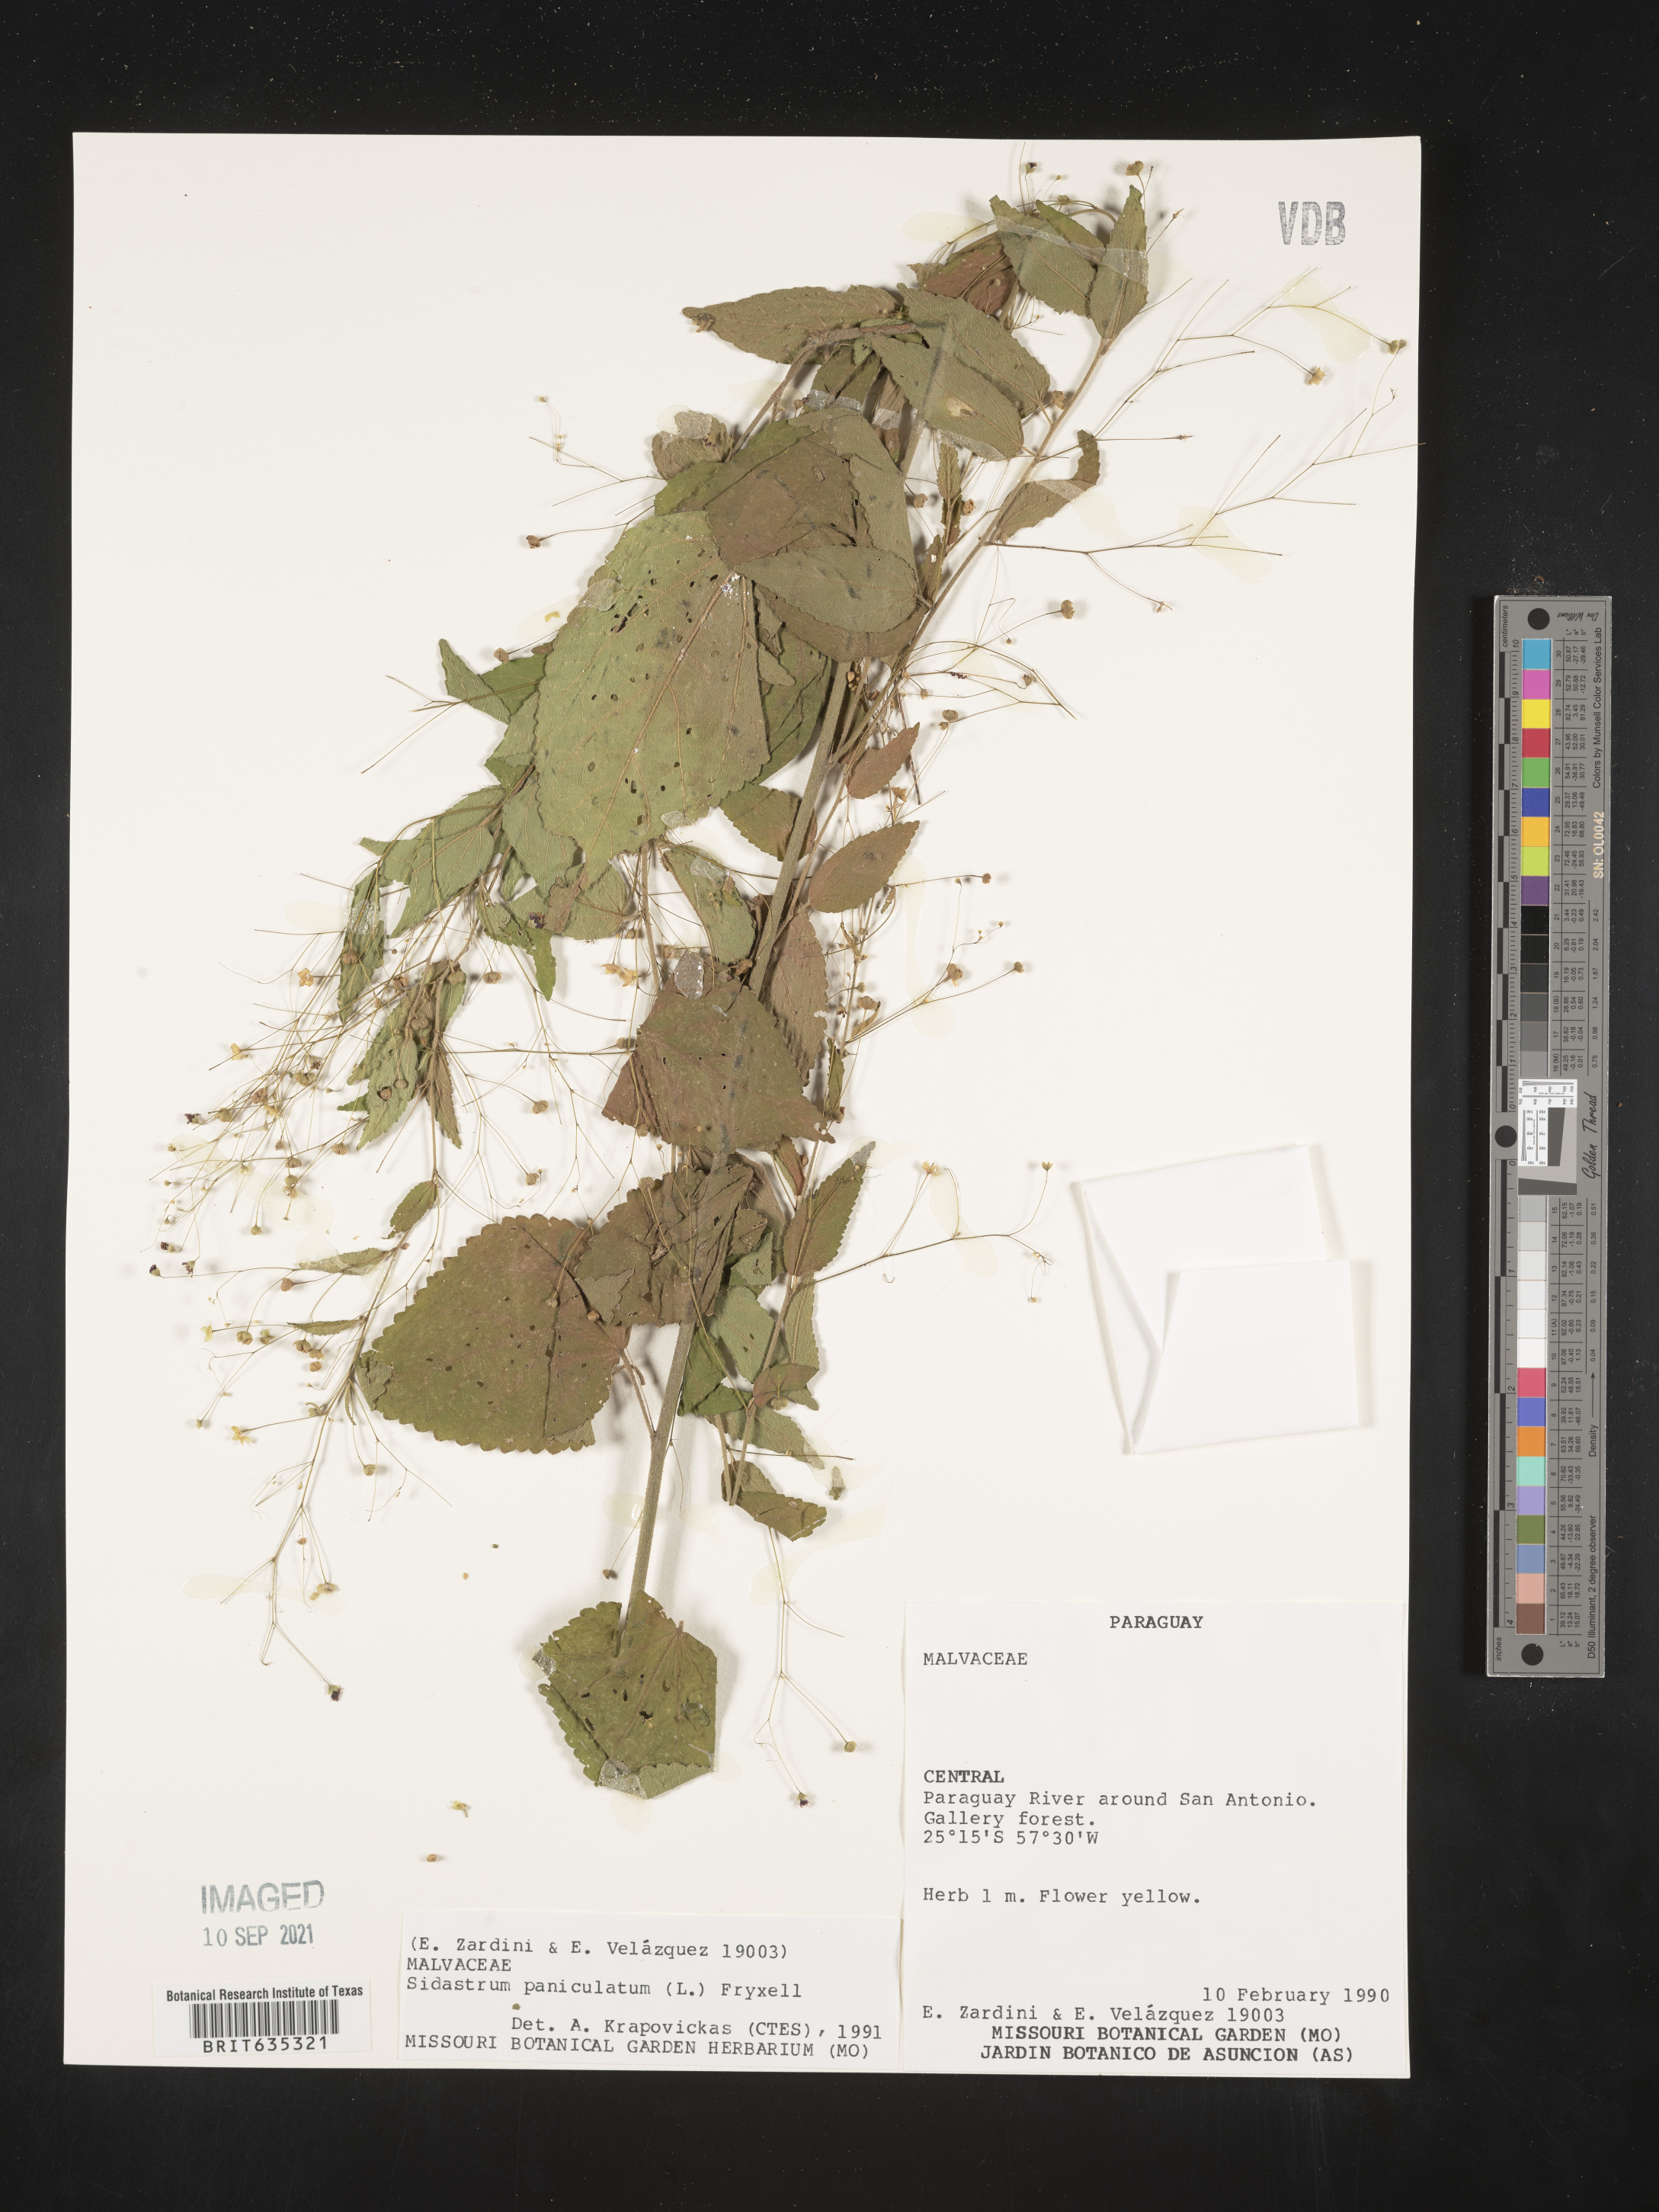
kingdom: Plantae
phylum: Tracheophyta
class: Magnoliopsida
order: Malvales
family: Malvaceae
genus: Sidastrum
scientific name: Sidastrum
